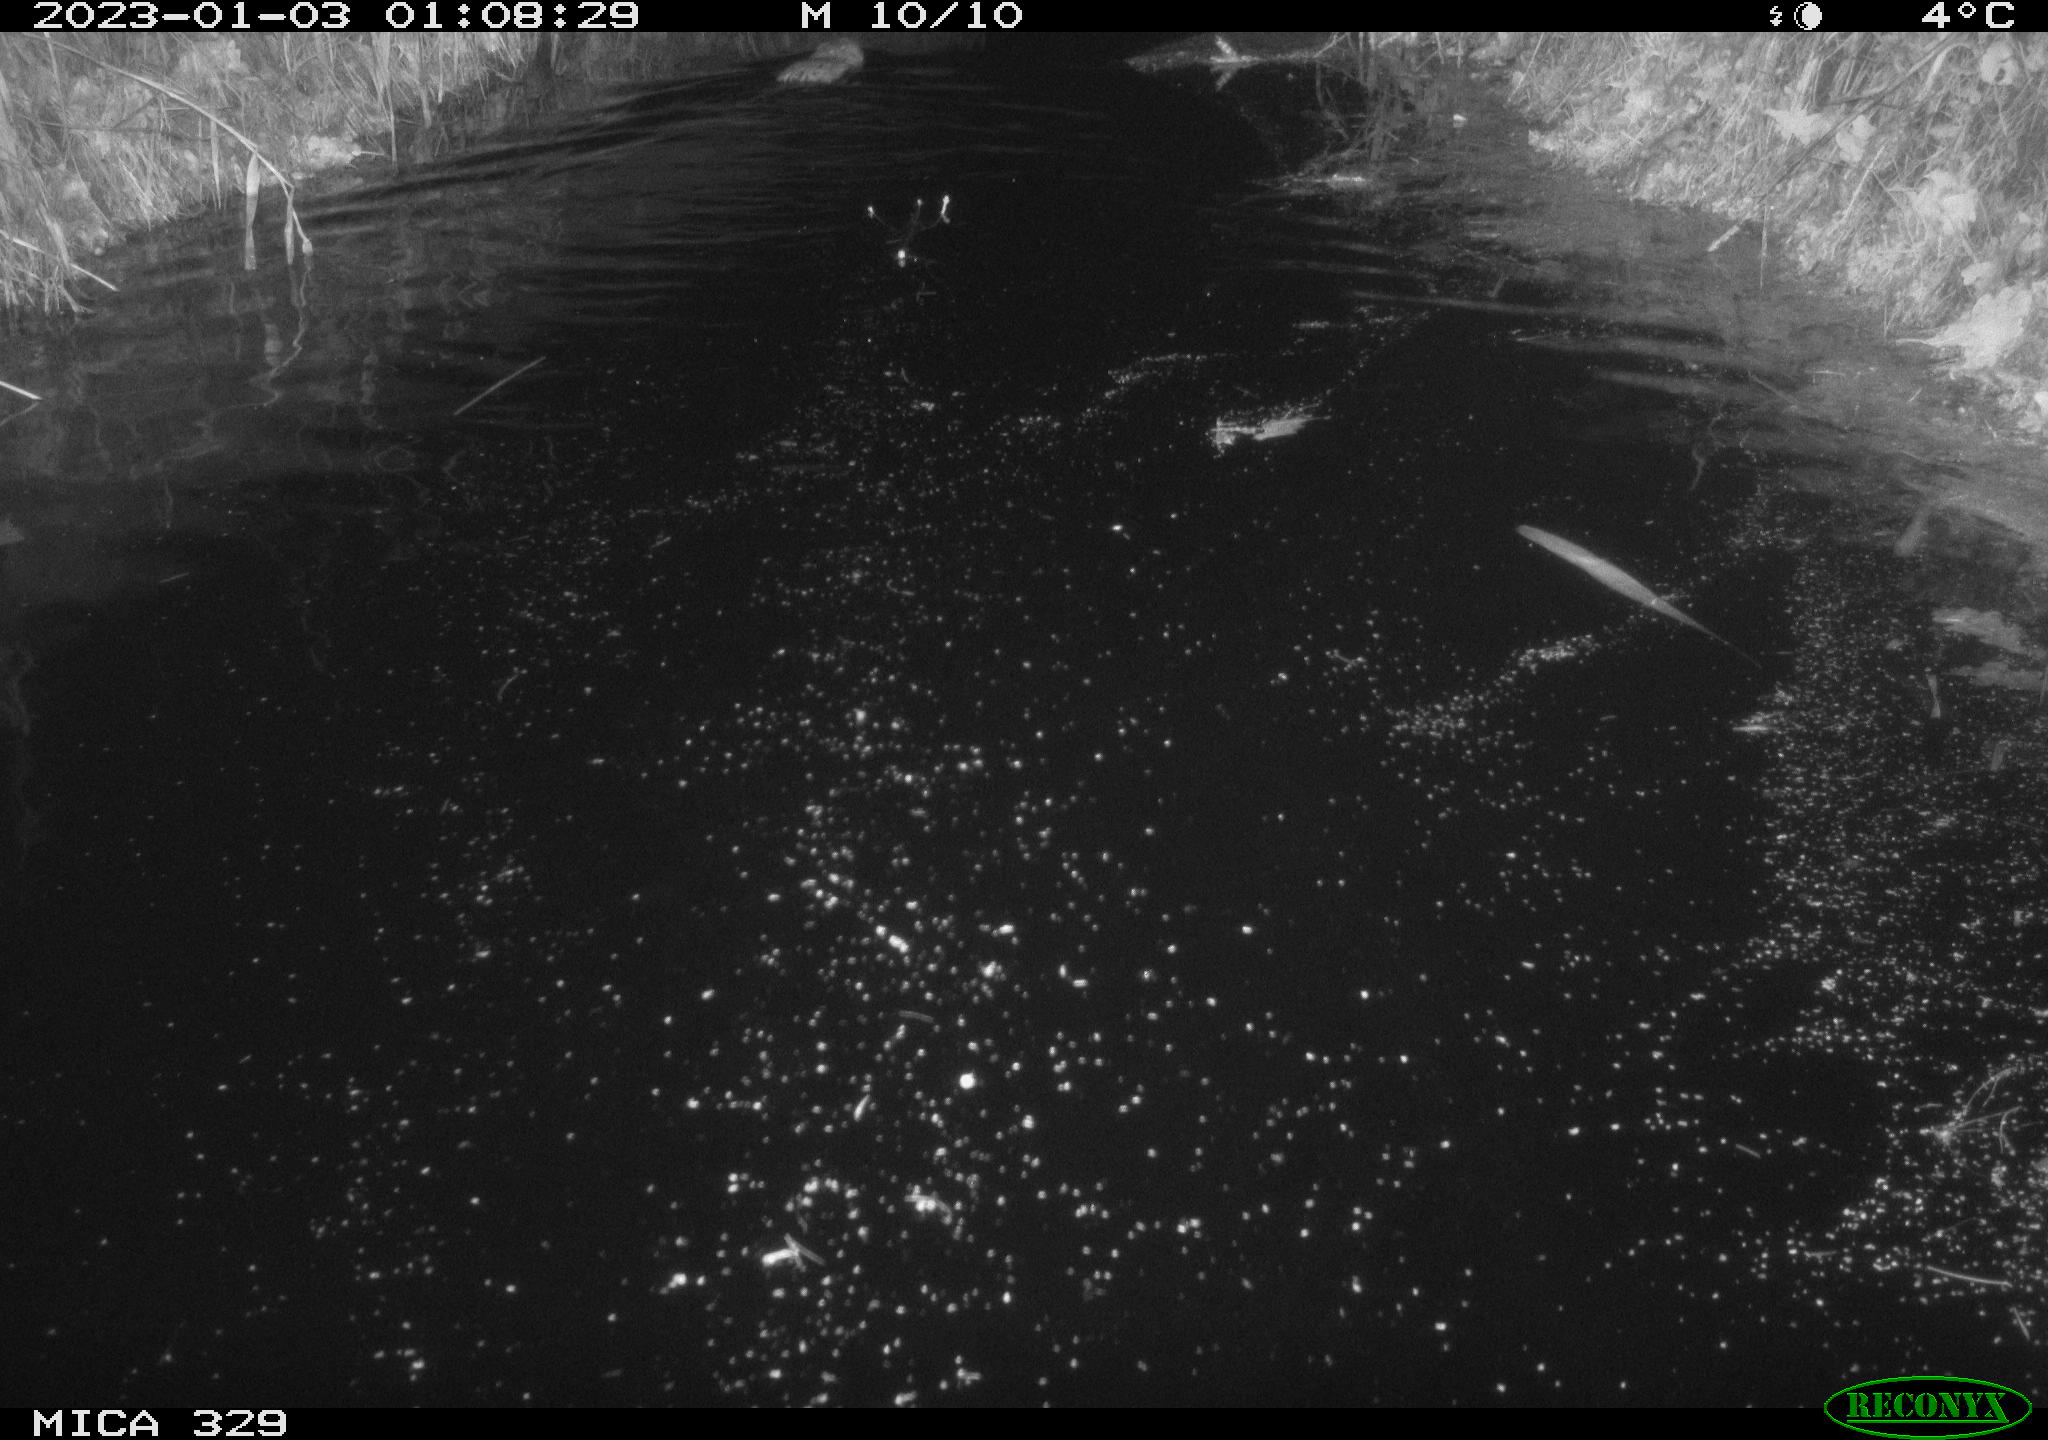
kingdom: Animalia
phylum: Chordata
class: Mammalia
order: Rodentia
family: Cricetidae
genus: Ondatra
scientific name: Ondatra zibethicus
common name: Muskrat
